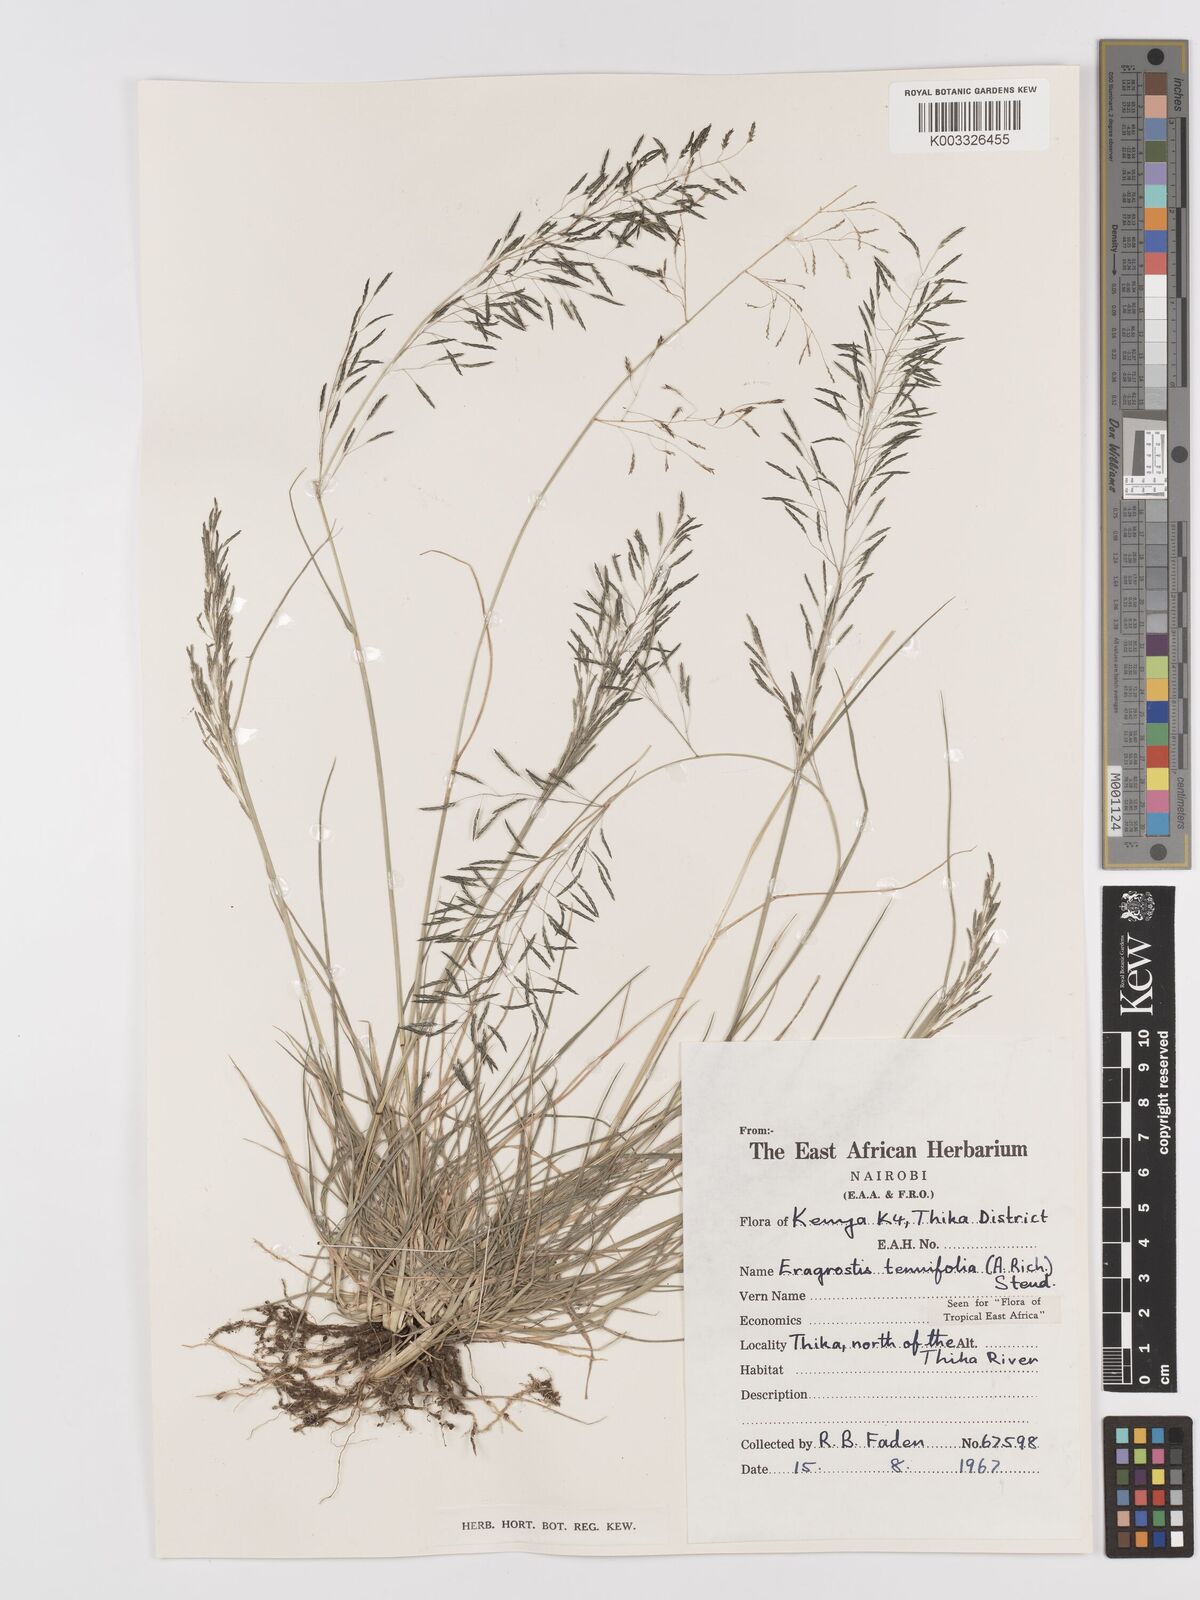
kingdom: Plantae
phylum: Tracheophyta
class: Liliopsida
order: Poales
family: Poaceae
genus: Eragrostis
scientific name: Eragrostis tenuifolia
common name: Elastic grass
